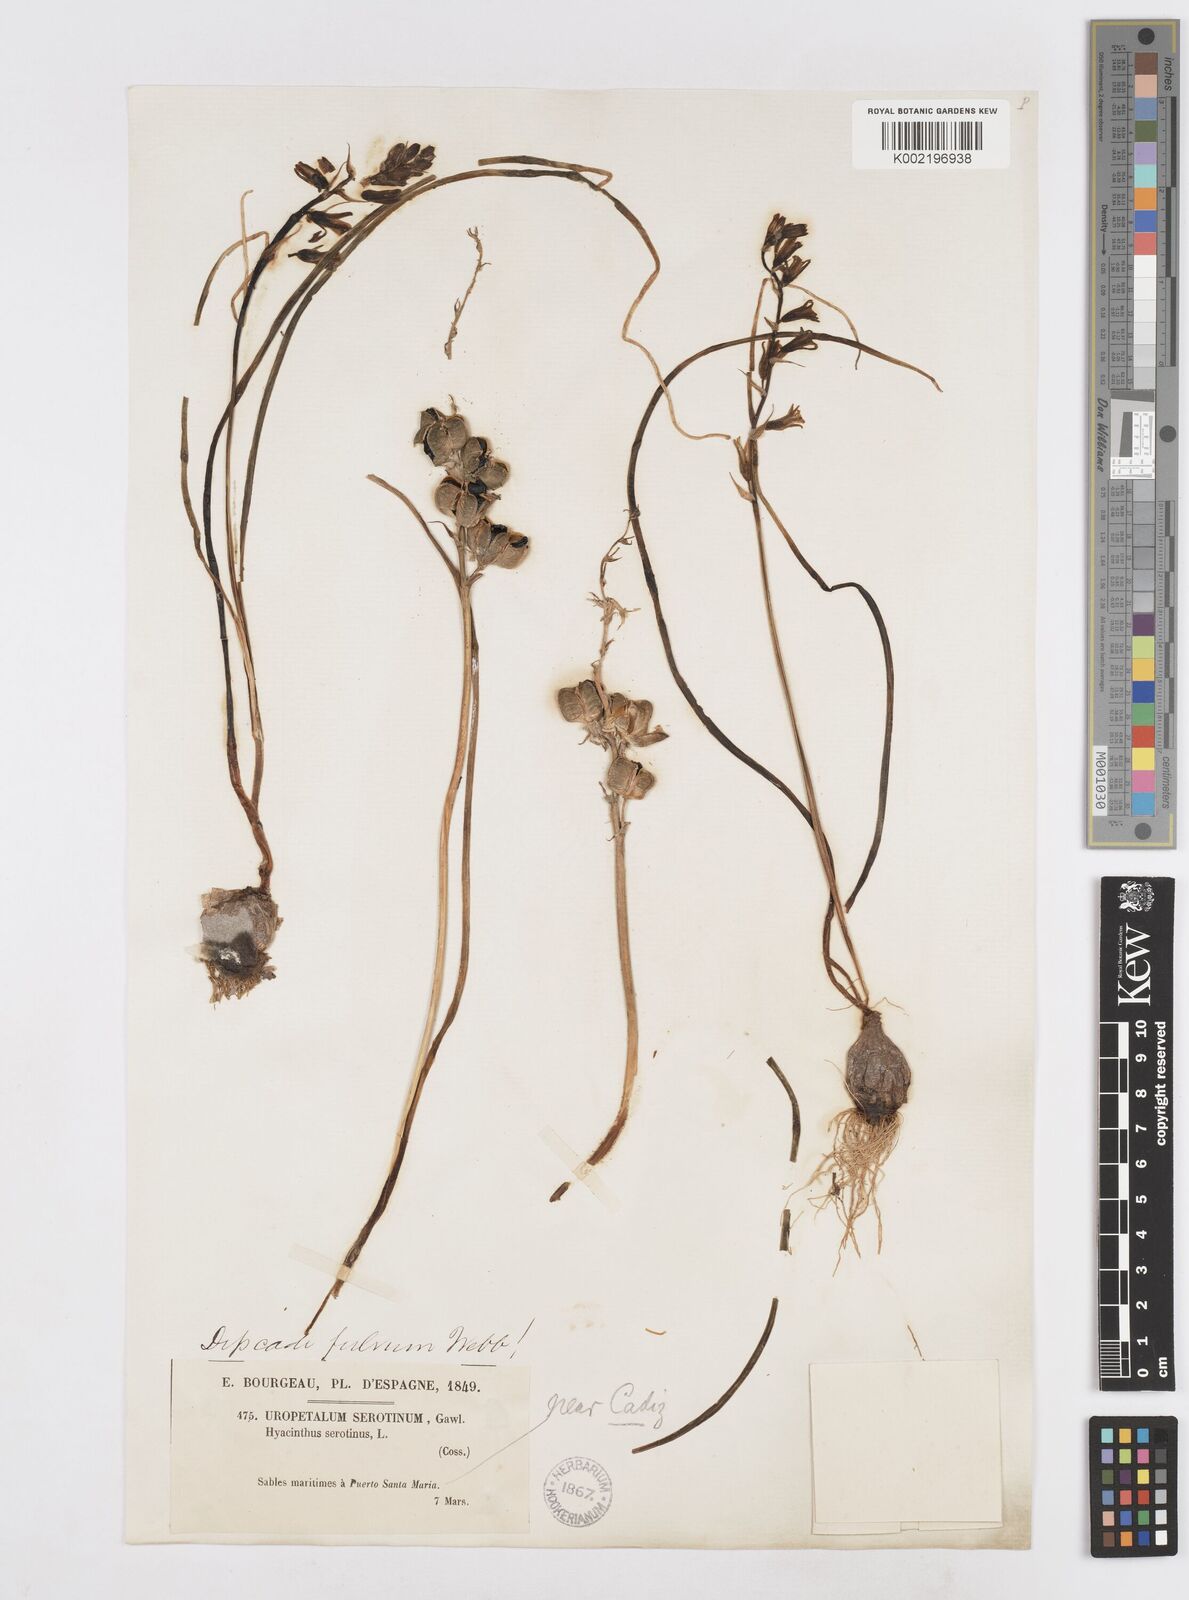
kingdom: Plantae
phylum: Tracheophyta
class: Liliopsida
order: Asparagales
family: Asparagaceae
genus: Dipcadi
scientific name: Dipcadi serotinum
